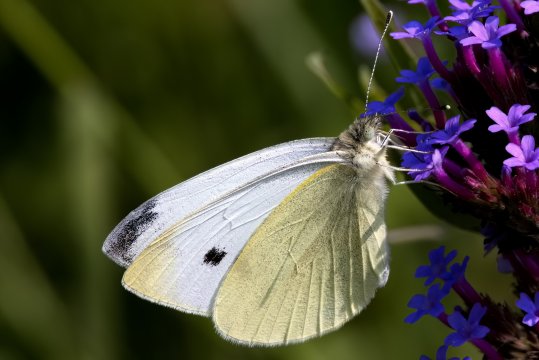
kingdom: Animalia
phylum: Arthropoda
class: Insecta
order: Lepidoptera
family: Pieridae
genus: Pieris
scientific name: Pieris rapae
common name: Cabbage White
